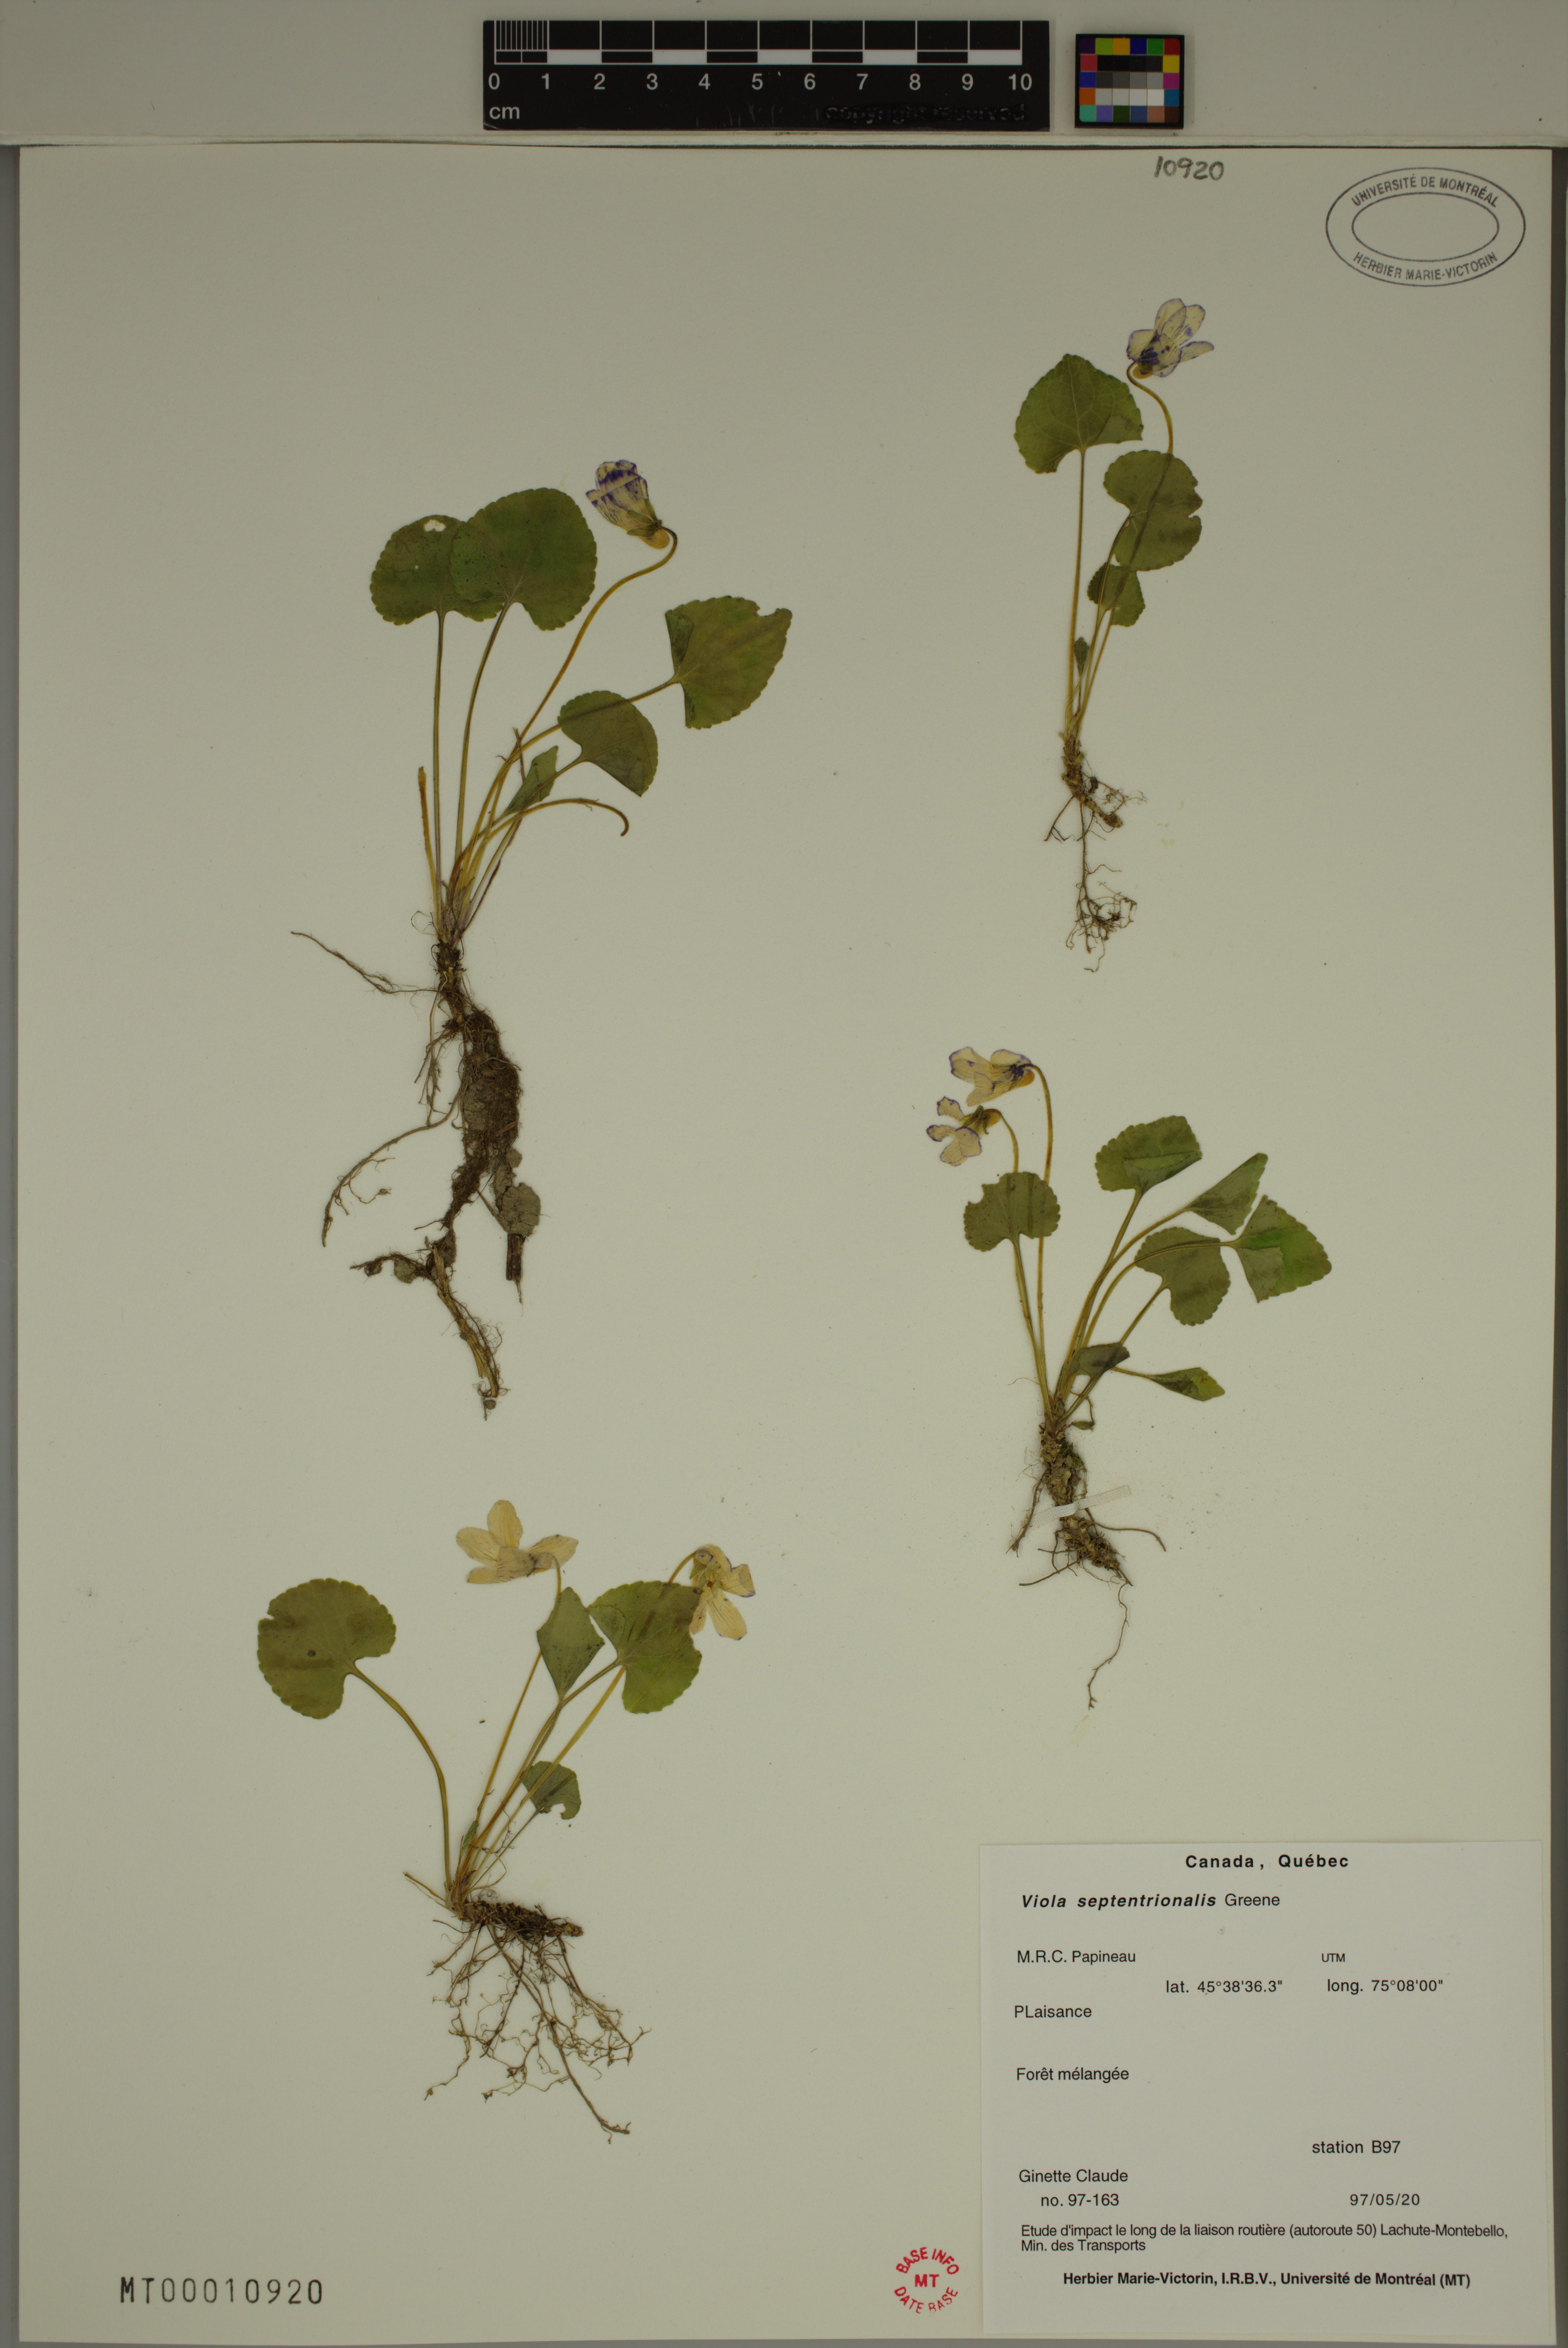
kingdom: Plantae
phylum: Tracheophyta
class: Magnoliopsida
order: Malpighiales
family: Violaceae
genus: Viola
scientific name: Viola sororia
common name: Dooryard violet
